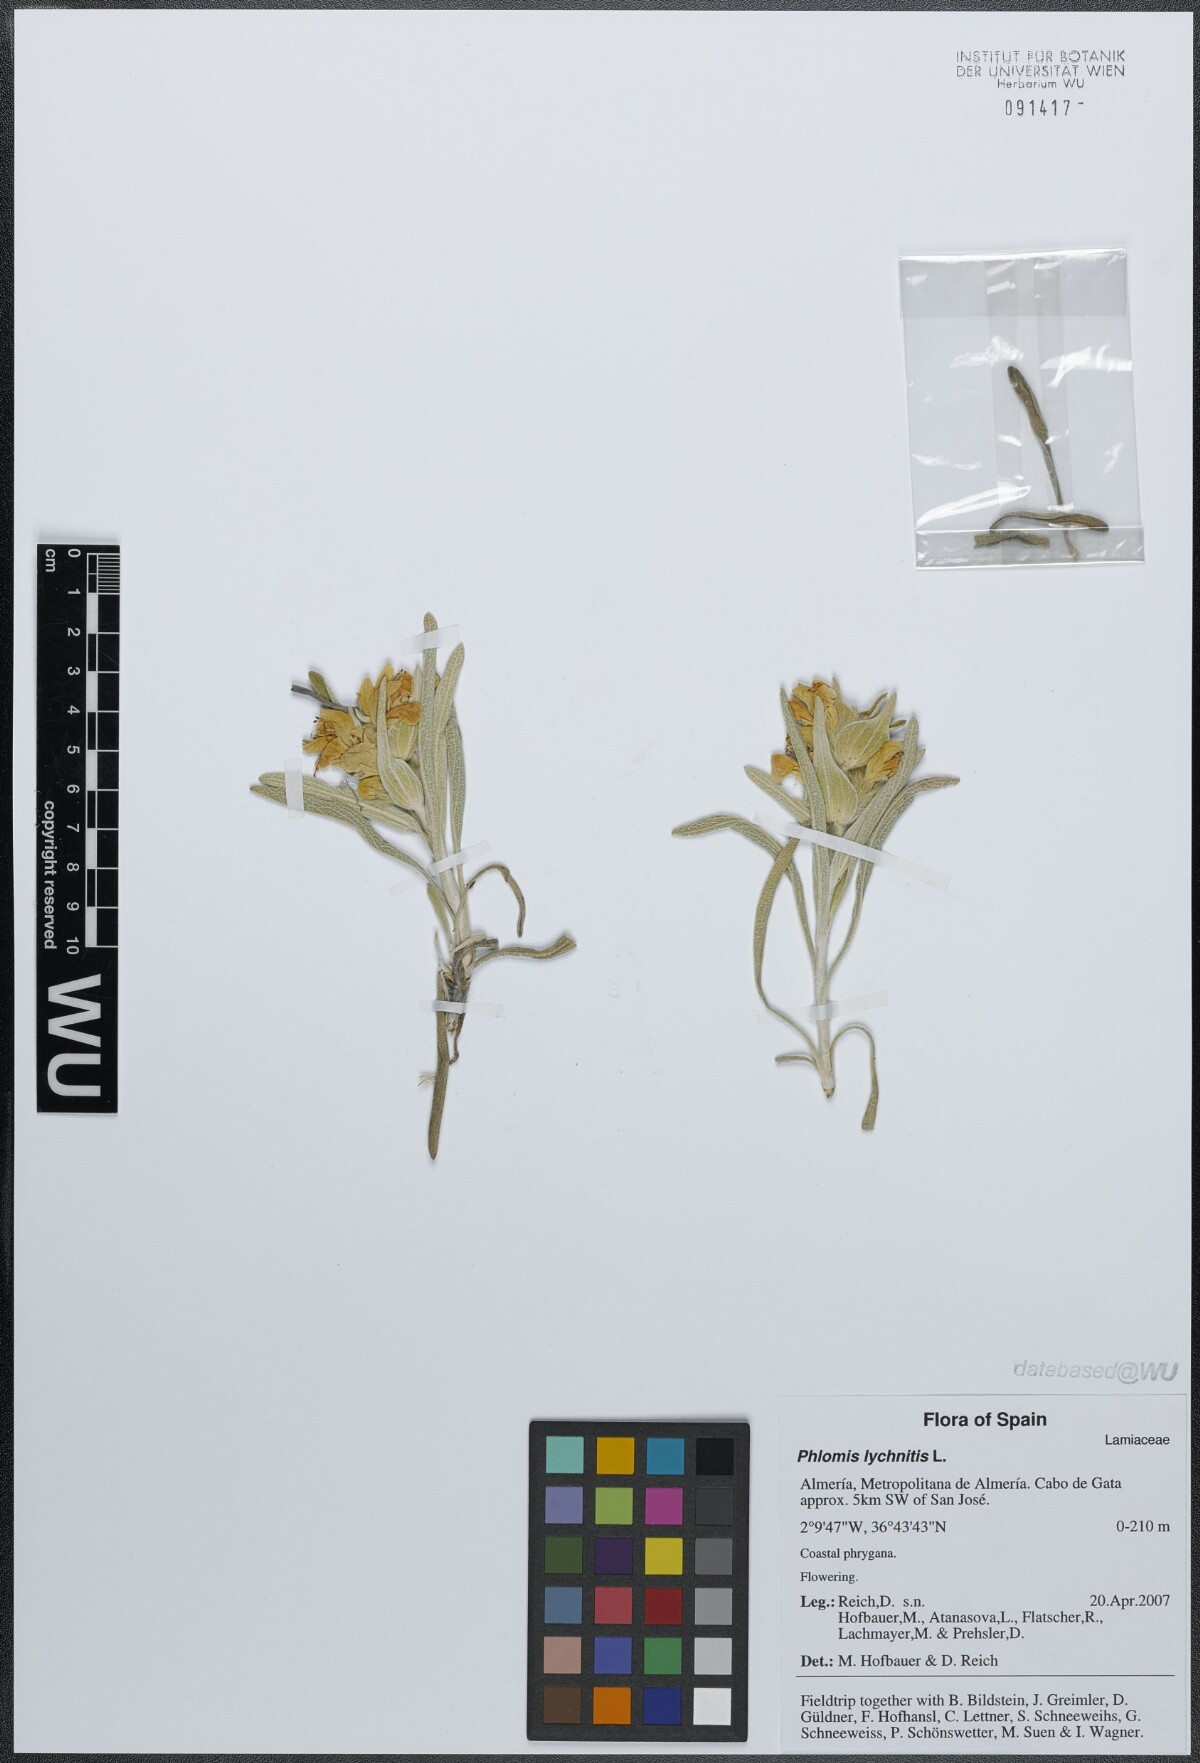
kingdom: Plantae
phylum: Tracheophyta
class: Magnoliopsida
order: Lamiales
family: Lamiaceae
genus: Phlomis
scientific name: Phlomis lychnitis
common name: Lampwickplant
